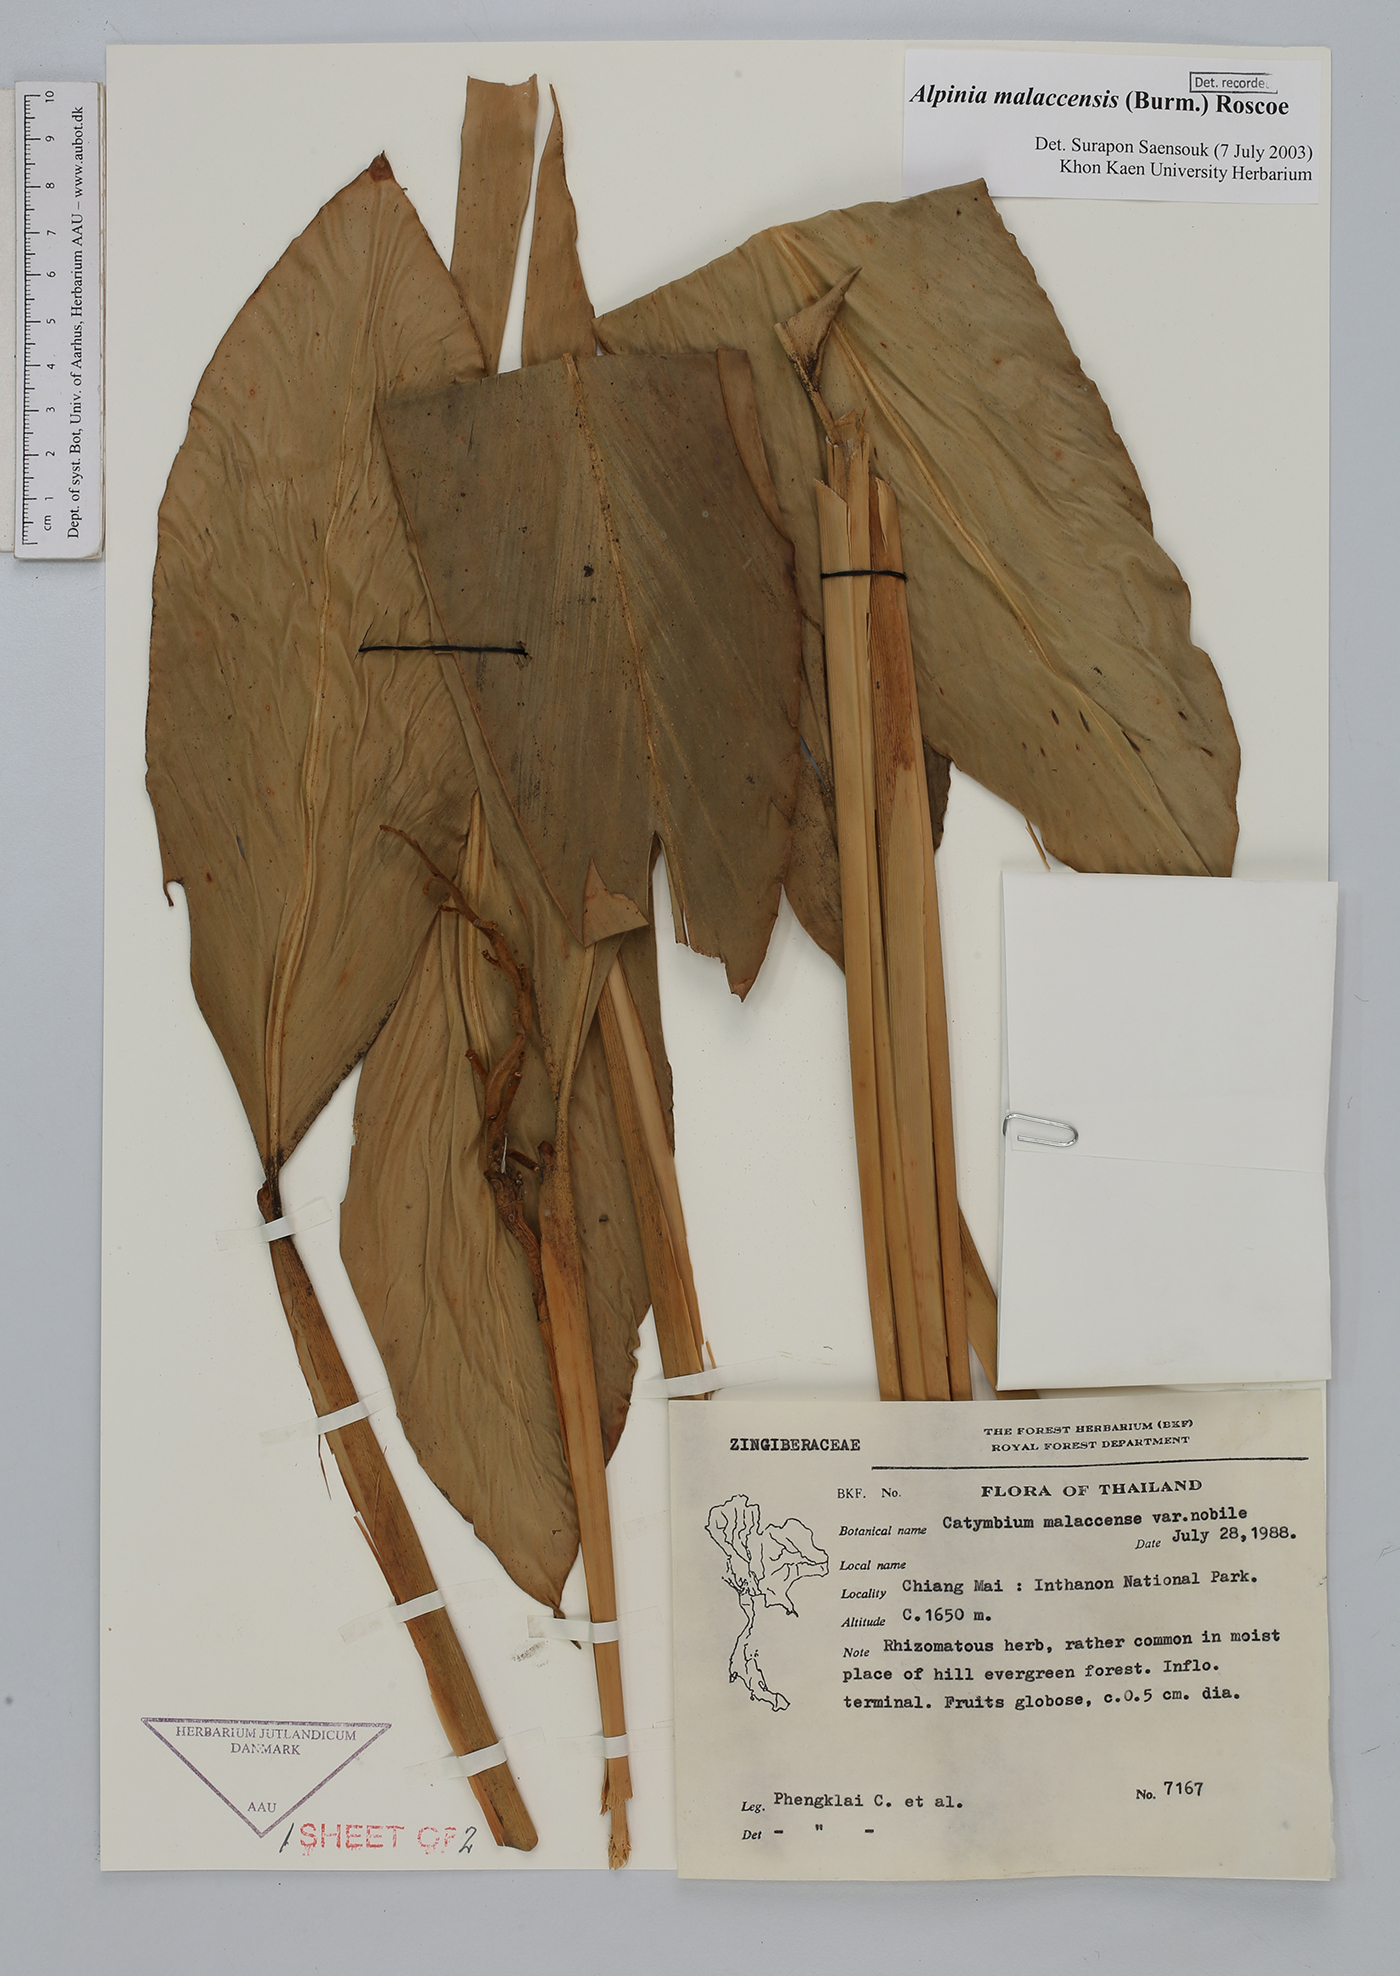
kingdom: Plantae
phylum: Tracheophyta
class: Liliopsida
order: Zingiberales
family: Zingiberaceae
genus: Alpinia
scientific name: Alpinia malaccensis
